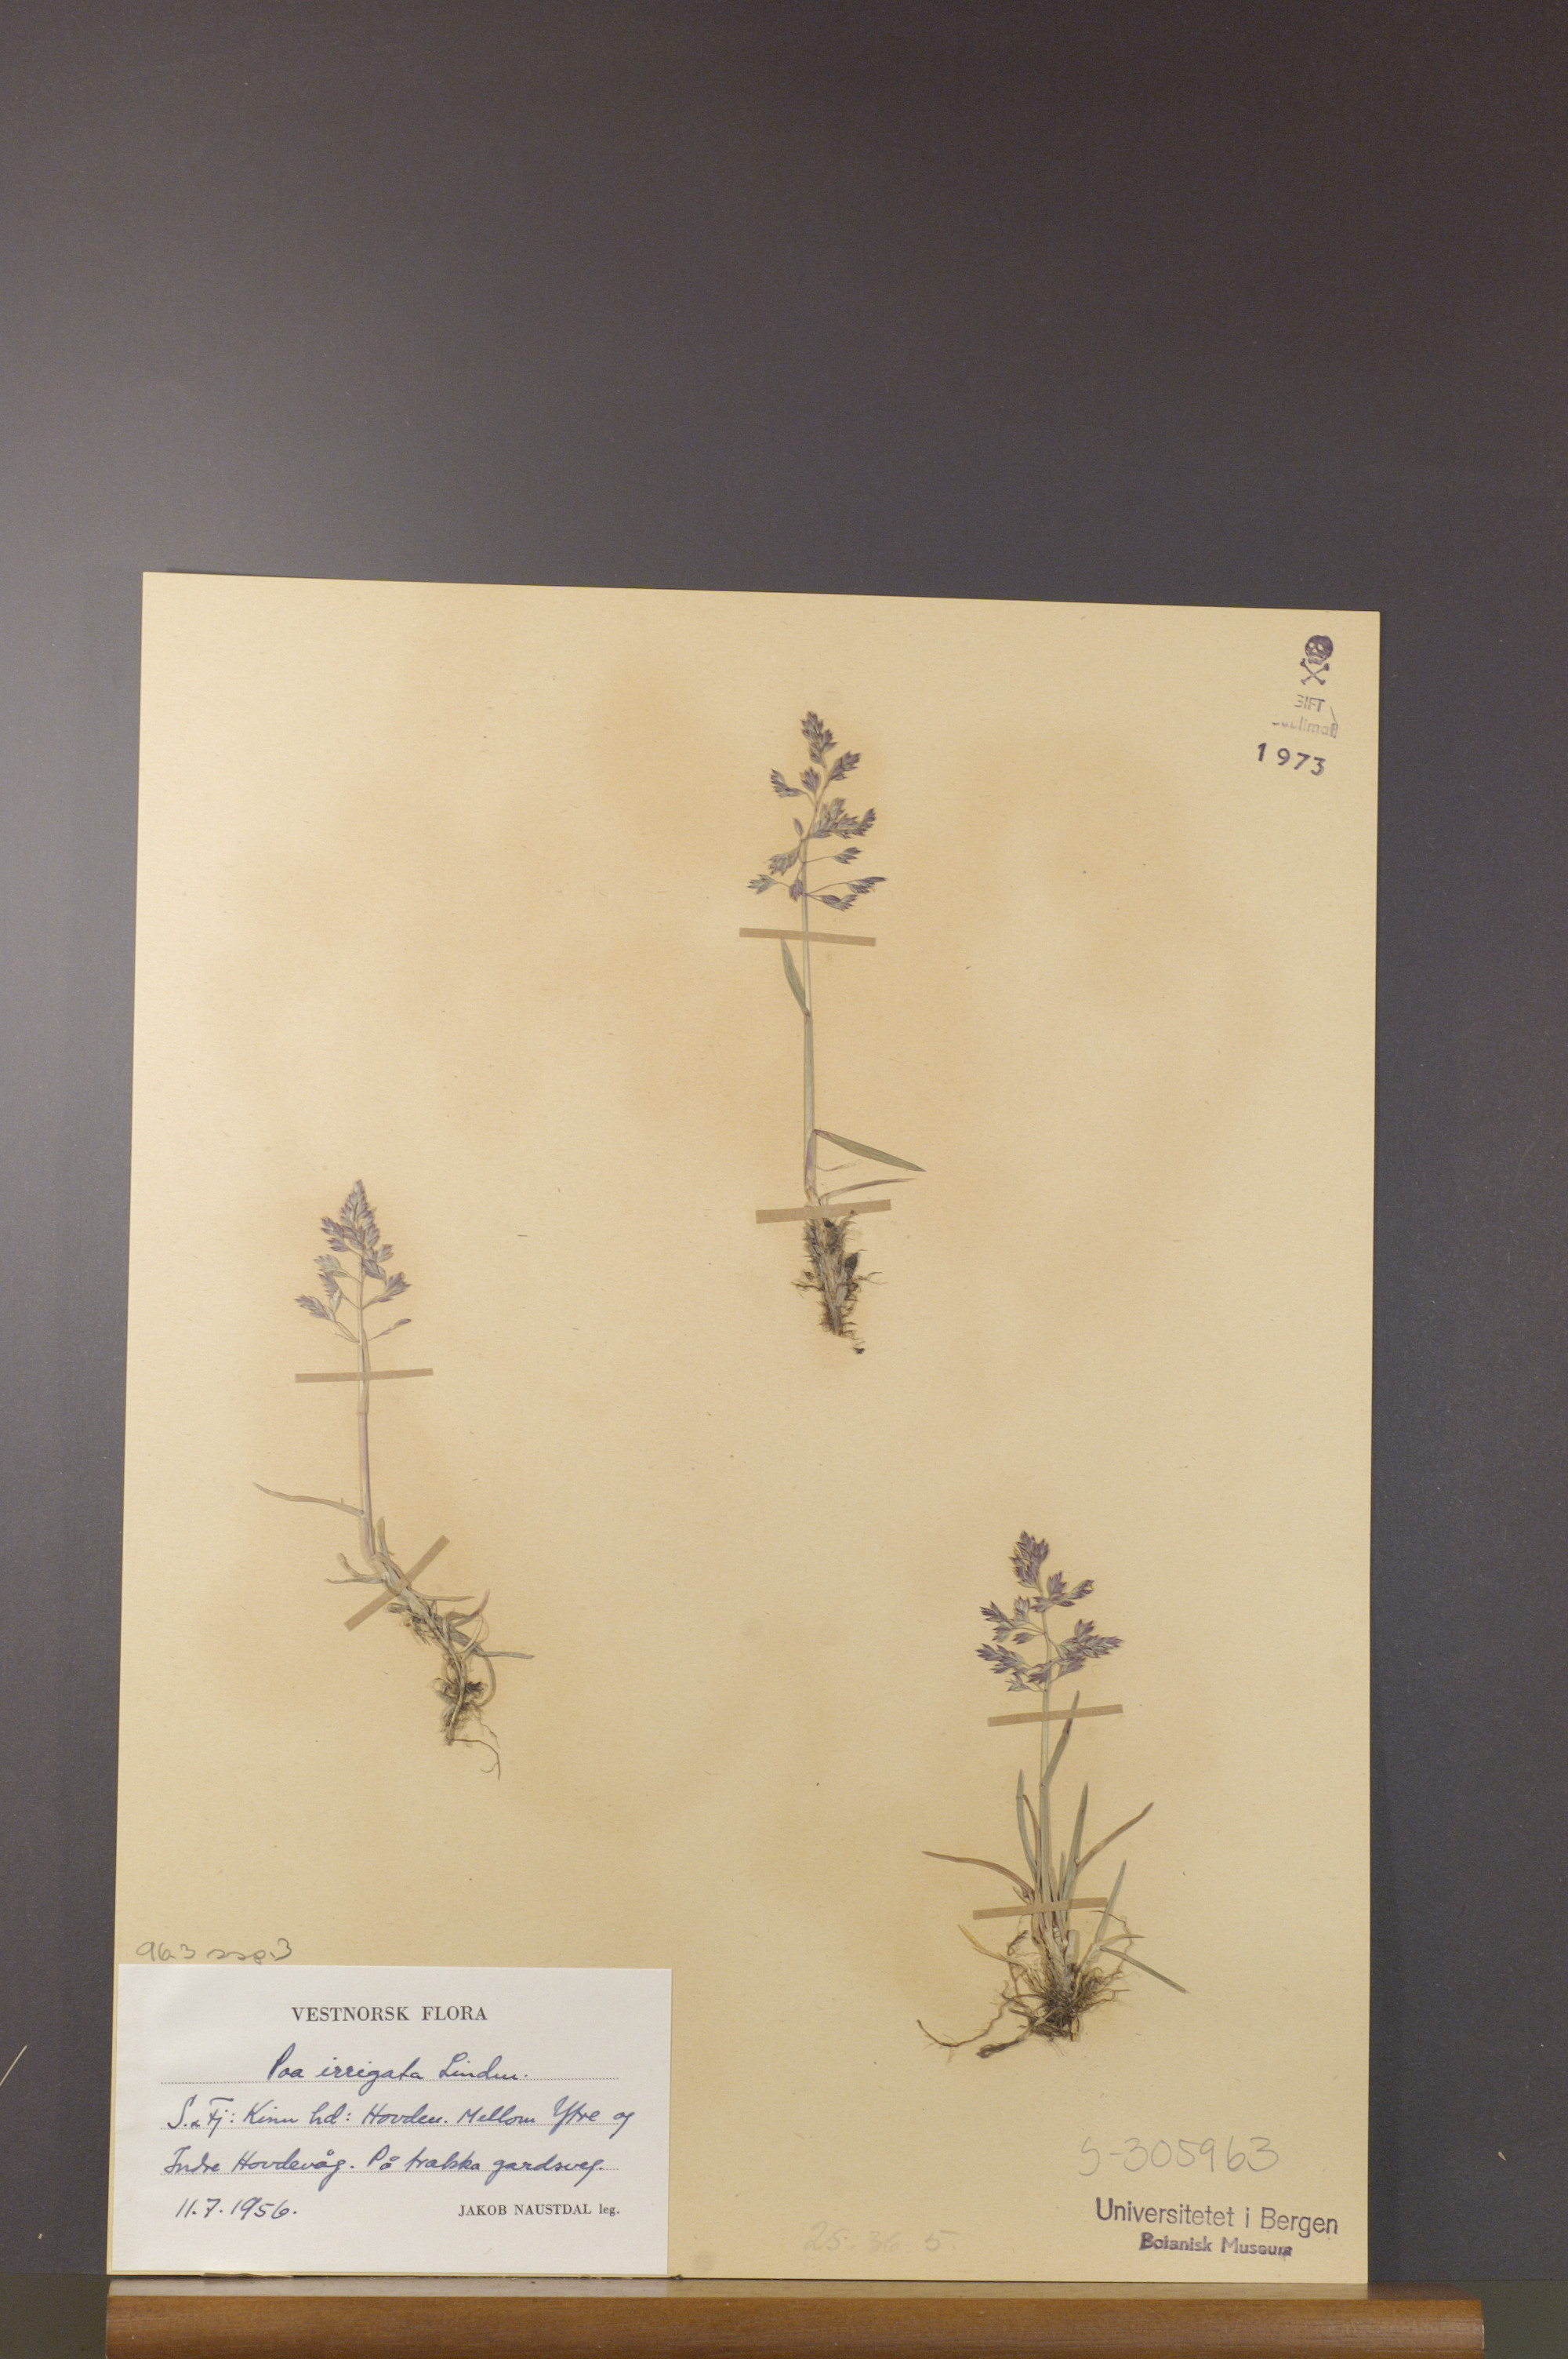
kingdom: Plantae
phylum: Tracheophyta
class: Liliopsida
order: Poales
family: Poaceae
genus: Poa
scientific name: Poa humilis
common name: Spreading meadow-grass
